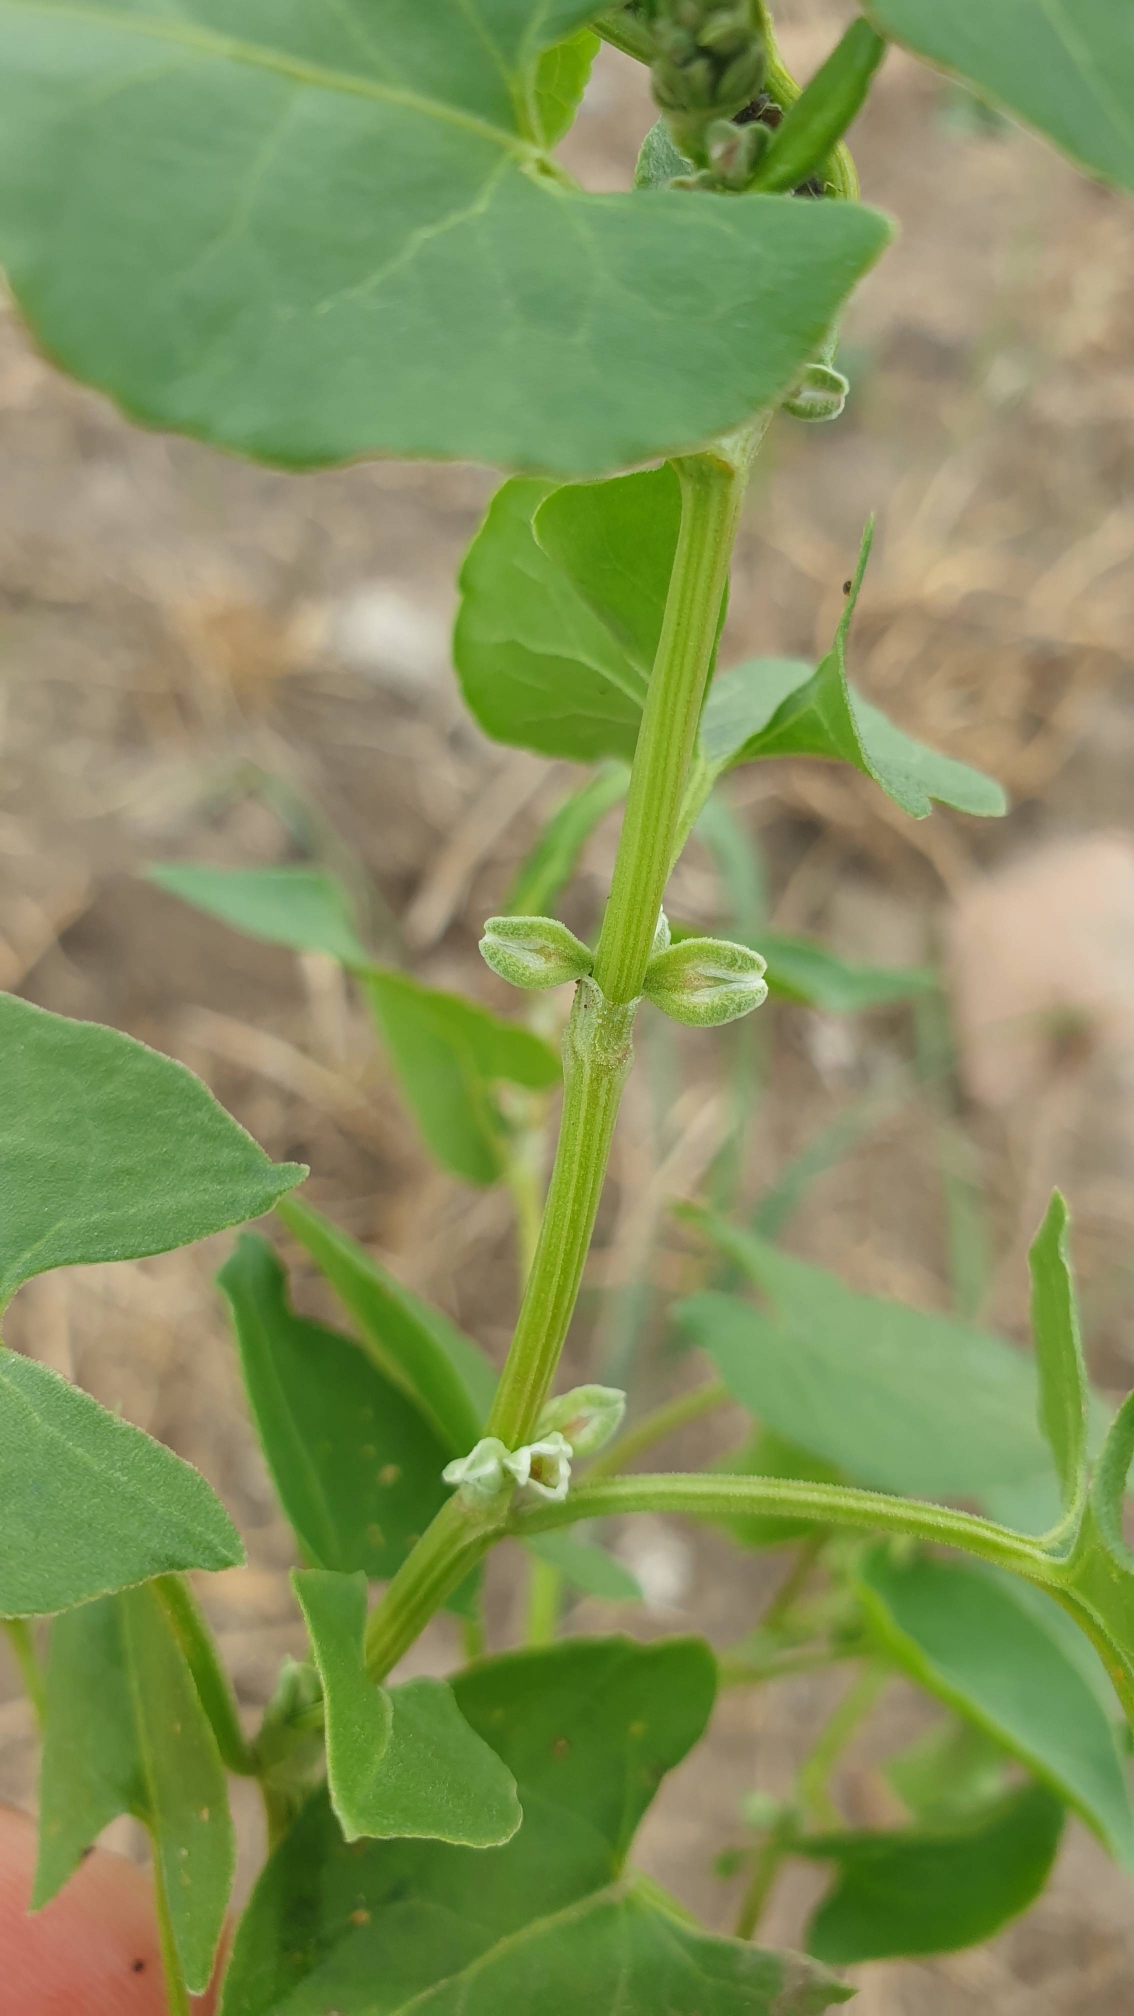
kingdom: Plantae
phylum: Tracheophyta
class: Magnoliopsida
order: Caryophyllales
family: Polygonaceae
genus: Fallopia
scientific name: Fallopia convolvulus
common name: Snerle-pileurt
